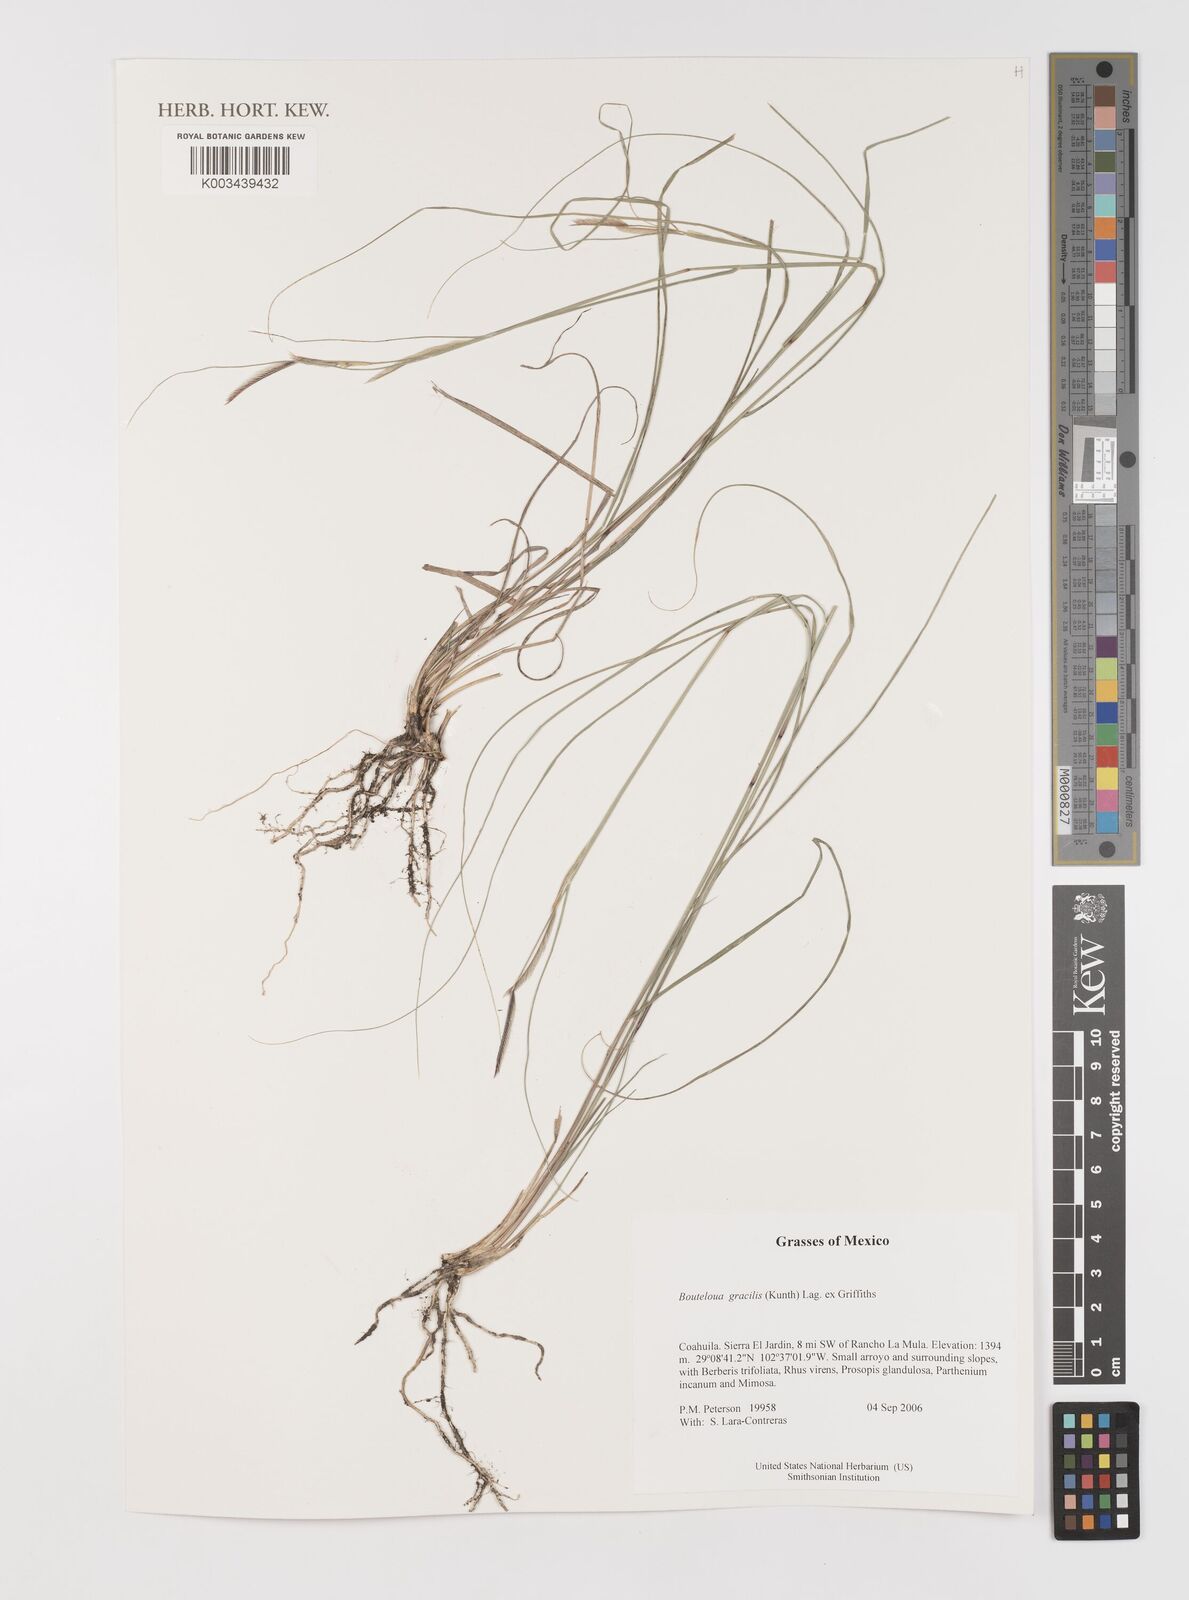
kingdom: Plantae
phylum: Tracheophyta
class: Liliopsida
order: Poales
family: Poaceae
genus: Bouteloua
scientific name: Bouteloua aristidoides
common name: Needle grama
